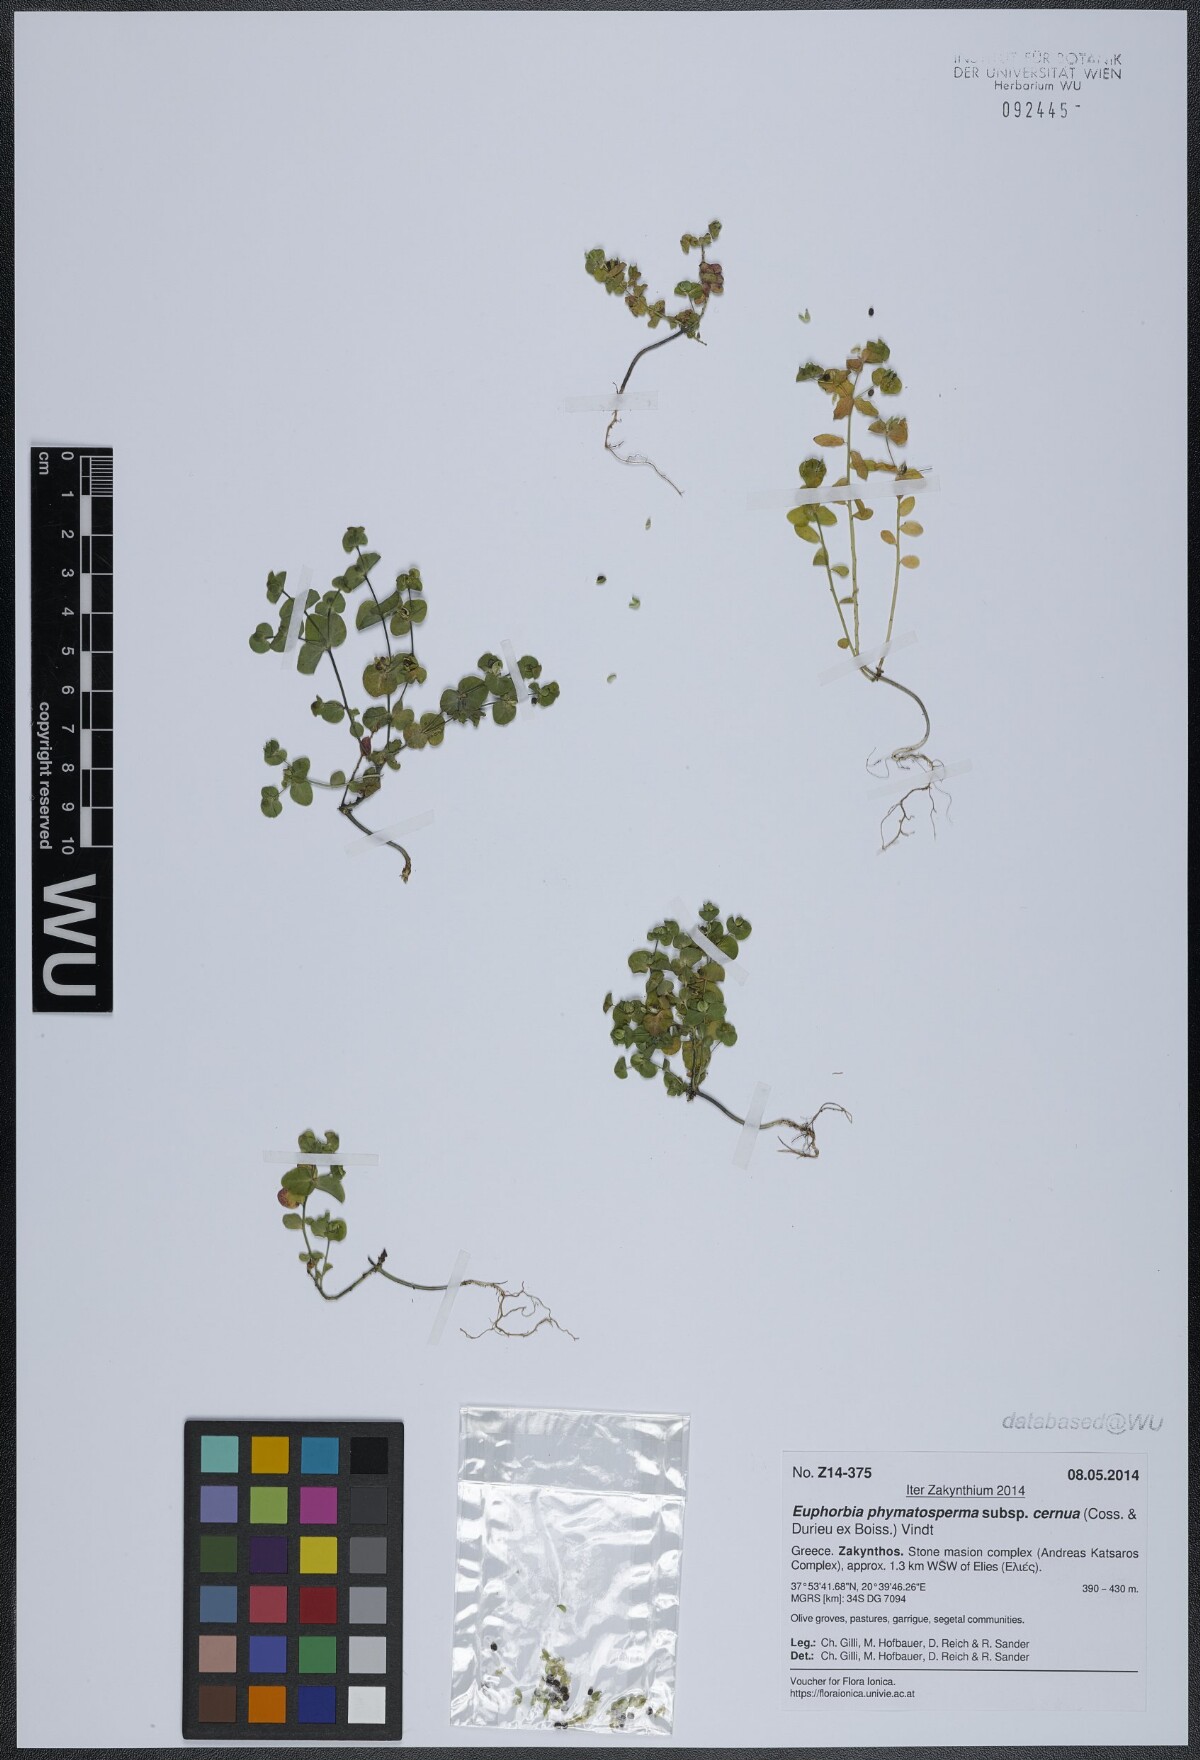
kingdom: Plantae
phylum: Tracheophyta
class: Magnoliopsida
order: Malpighiales
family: Euphorbiaceae
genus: Euphorbia
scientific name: Euphorbia phymatosperma
